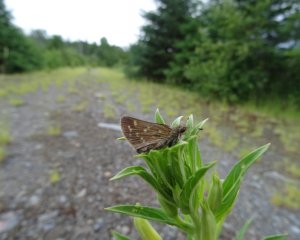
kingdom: Animalia
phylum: Arthropoda
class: Insecta
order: Lepidoptera
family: Hesperiidae
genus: Hesperia
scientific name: Hesperia sassacus
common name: Sassacus Skipper
